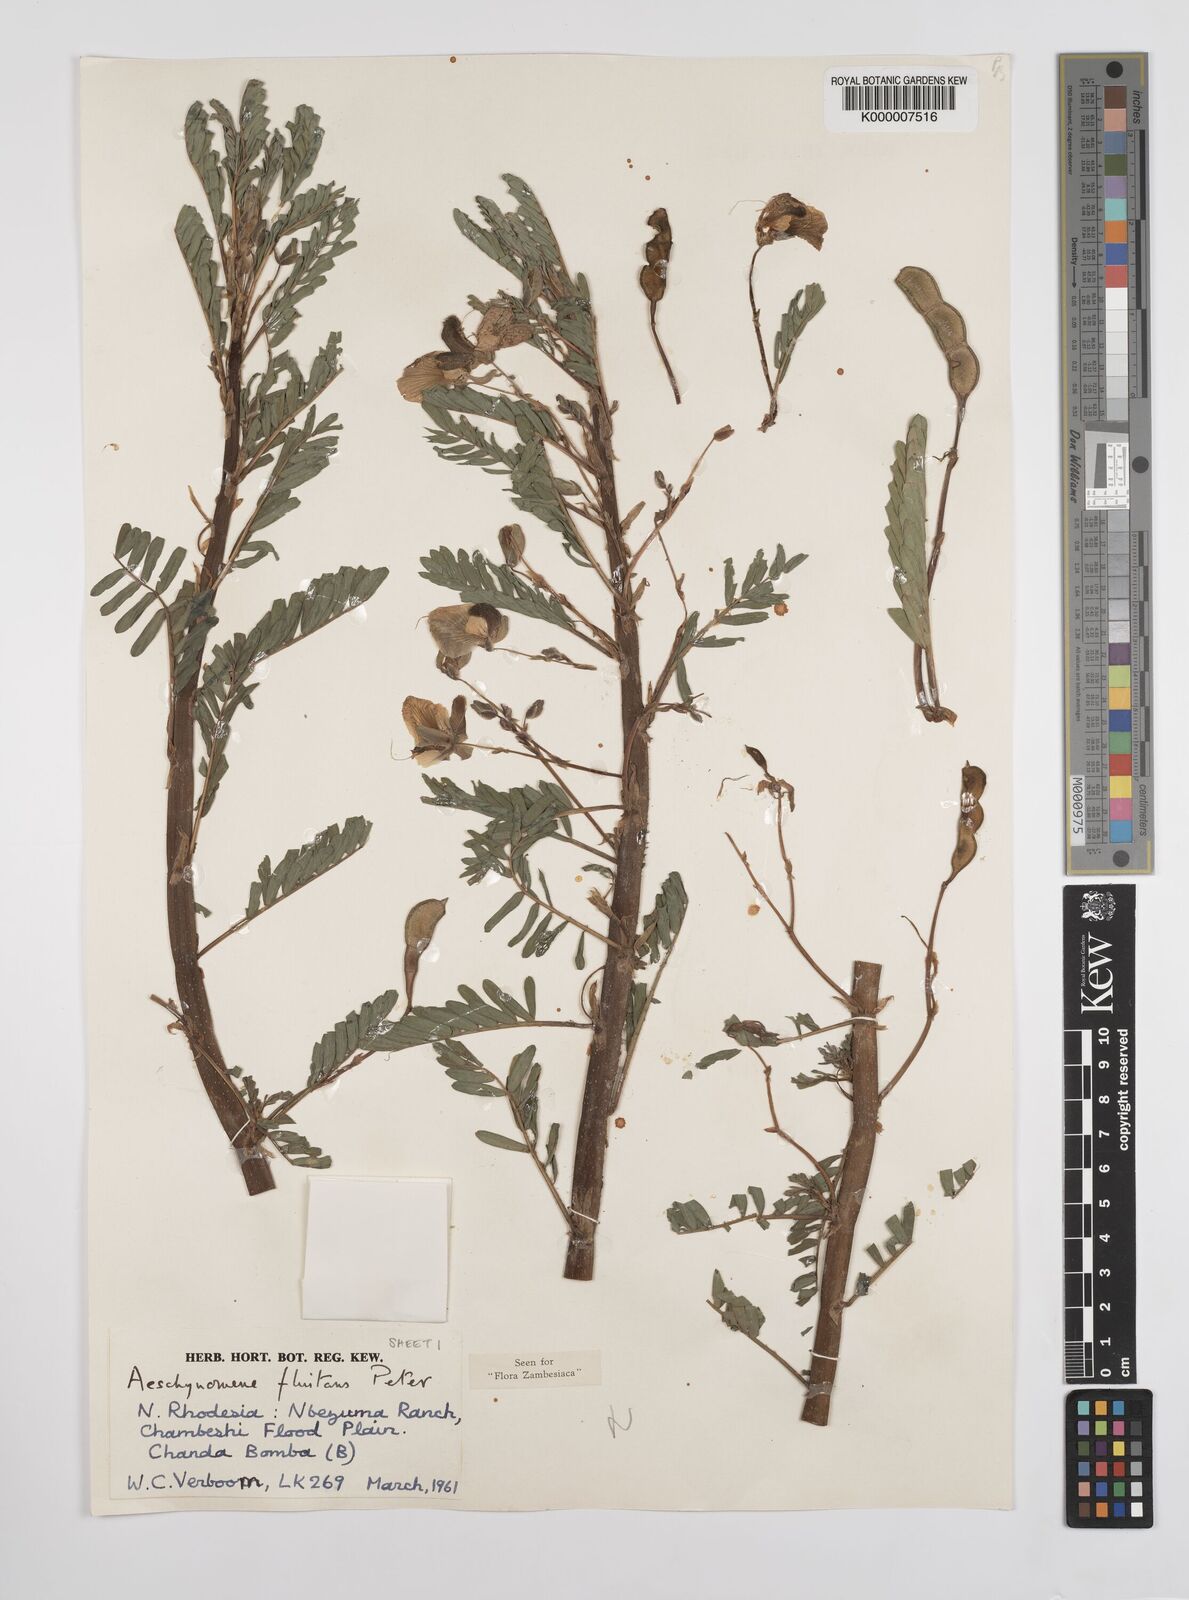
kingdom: Plantae
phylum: Tracheophyta
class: Magnoliopsida
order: Fabales
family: Fabaceae
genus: Aeschynomene
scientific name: Aeschynomene fluitans
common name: Giant water sensitive plant
